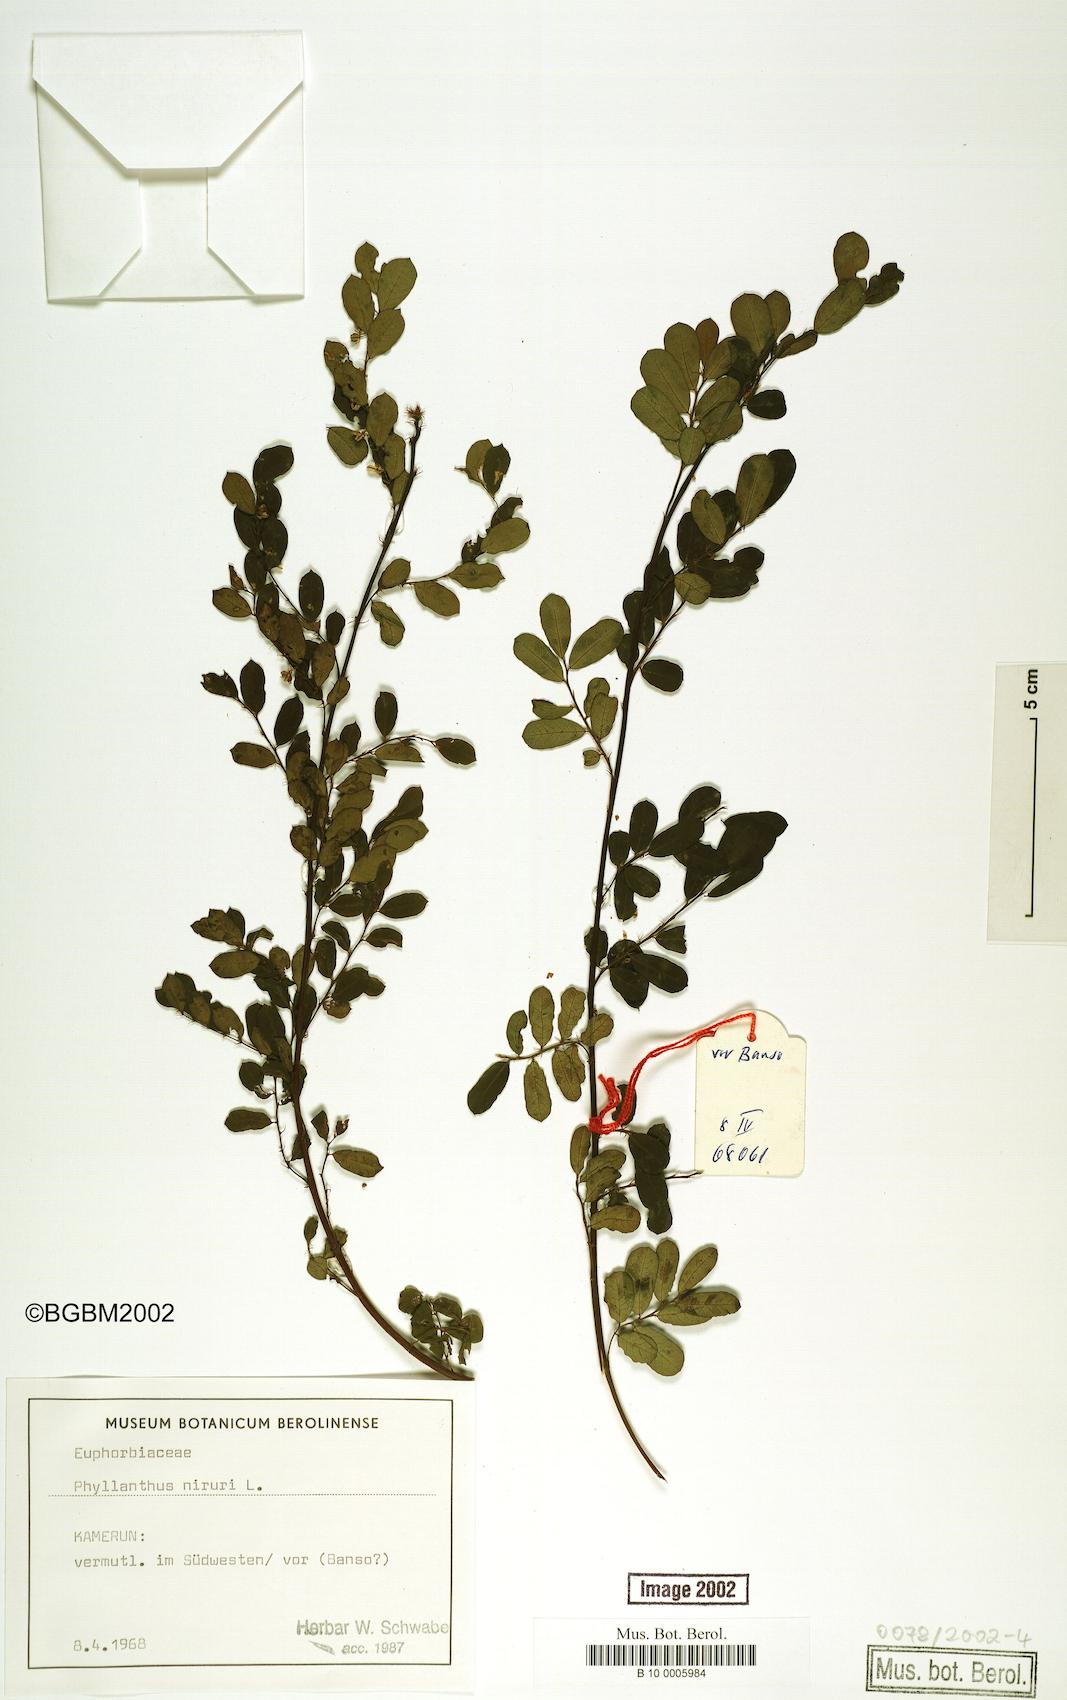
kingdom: Plantae
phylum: Tracheophyta
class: Magnoliopsida
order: Malpighiales
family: Phyllanthaceae
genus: Phyllanthus
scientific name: Phyllanthus niruri
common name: Niruri
